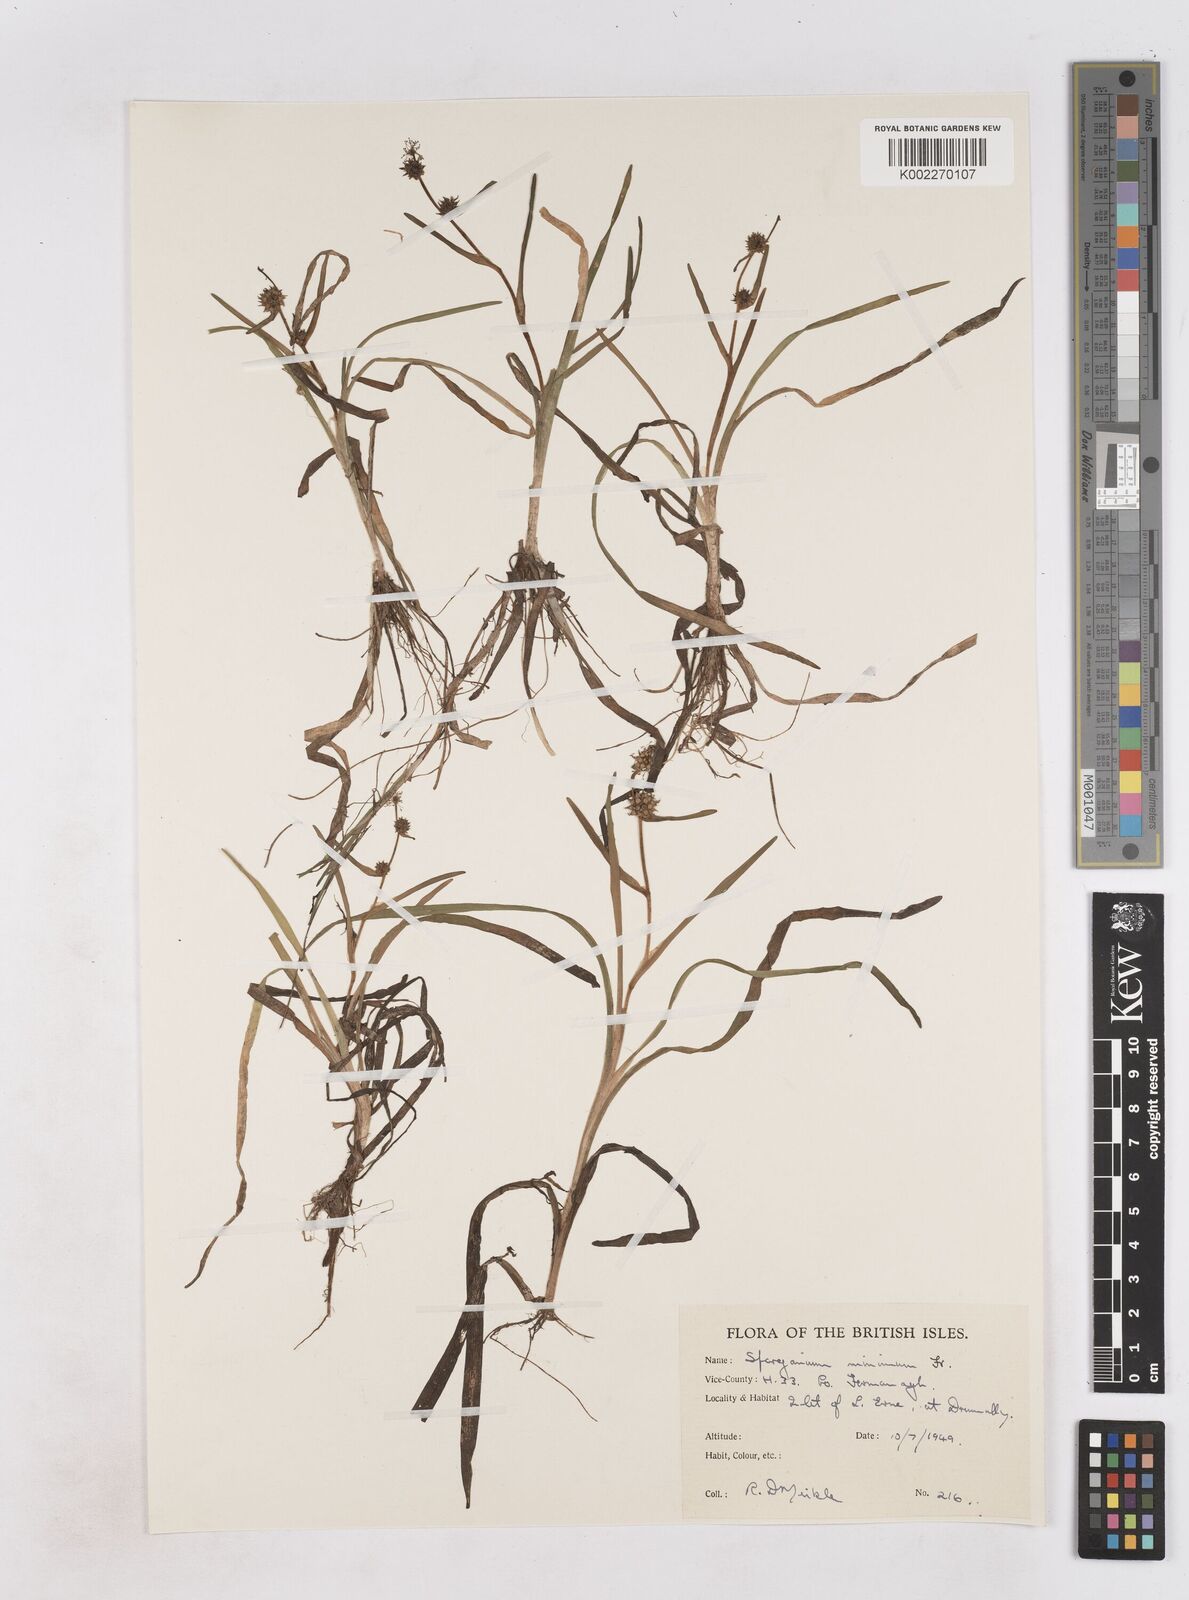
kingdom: Plantae
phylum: Tracheophyta
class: Liliopsida
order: Poales
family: Typhaceae
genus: Sparganium
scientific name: Sparganium natans
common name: Least bur-reed
